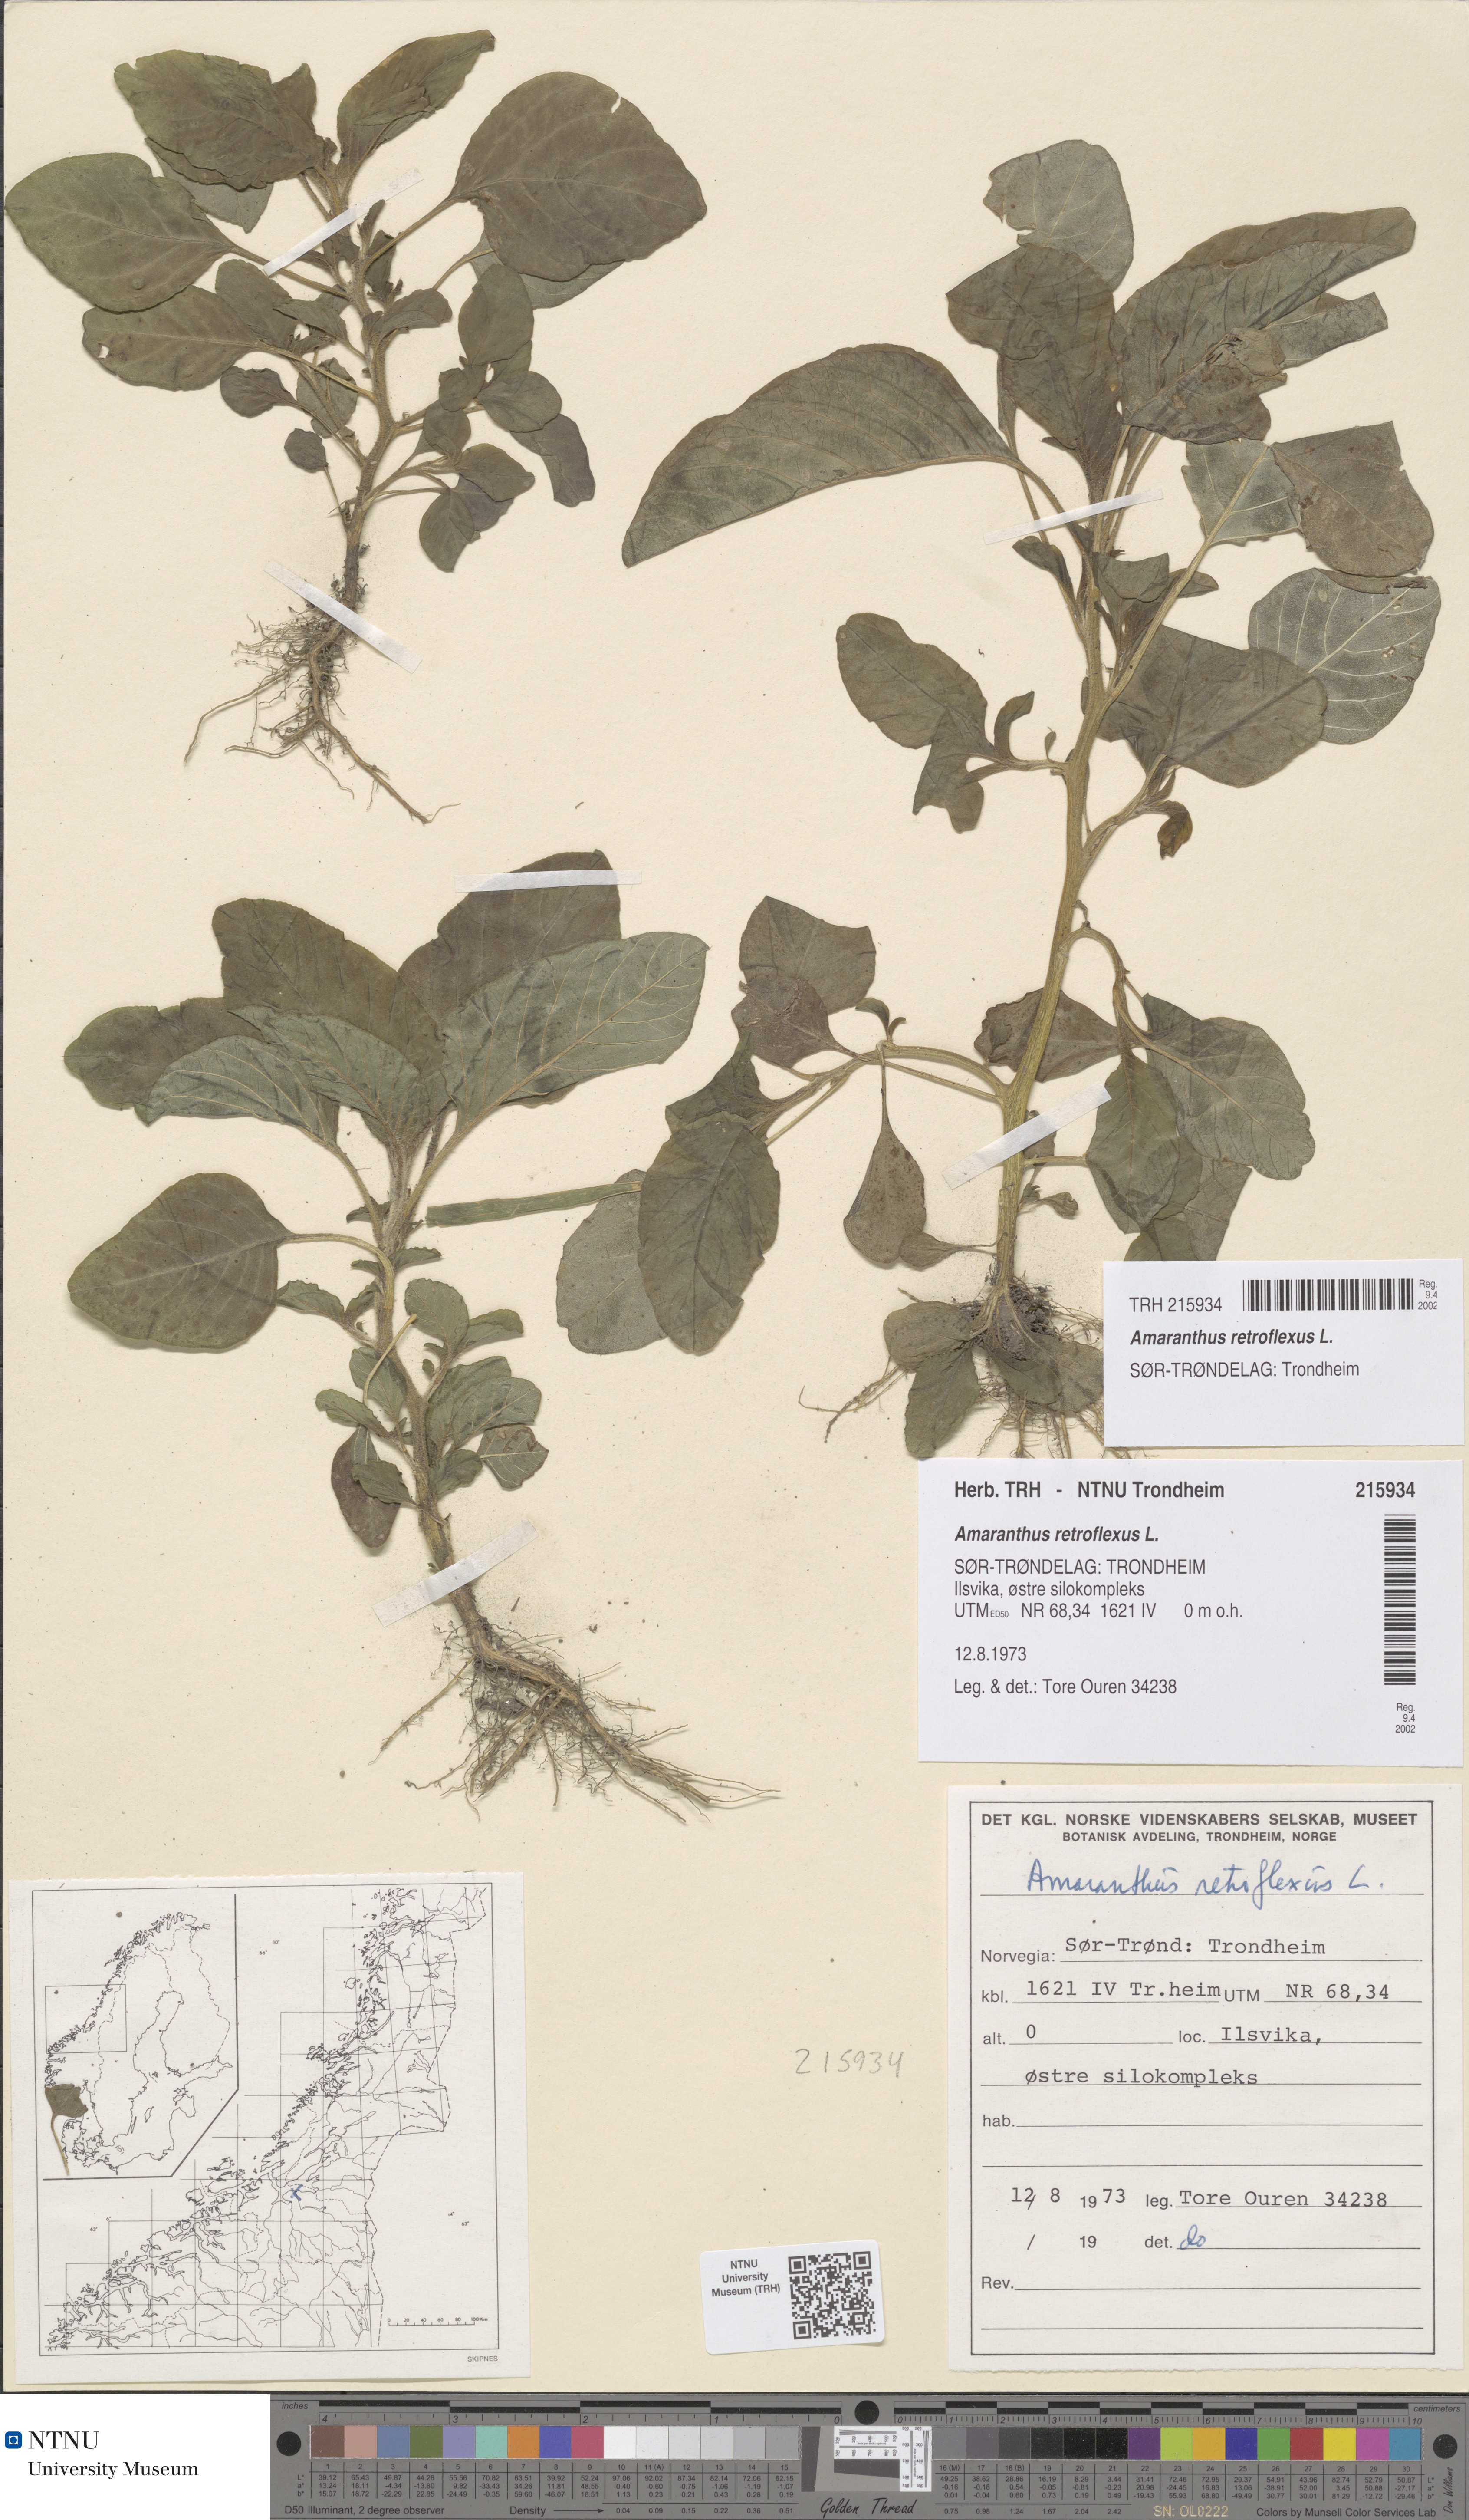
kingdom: Plantae
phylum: Tracheophyta
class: Magnoliopsida
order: Caryophyllales
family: Amaranthaceae
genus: Amaranthus
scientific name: Amaranthus retroflexus
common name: Redroot amaranth
